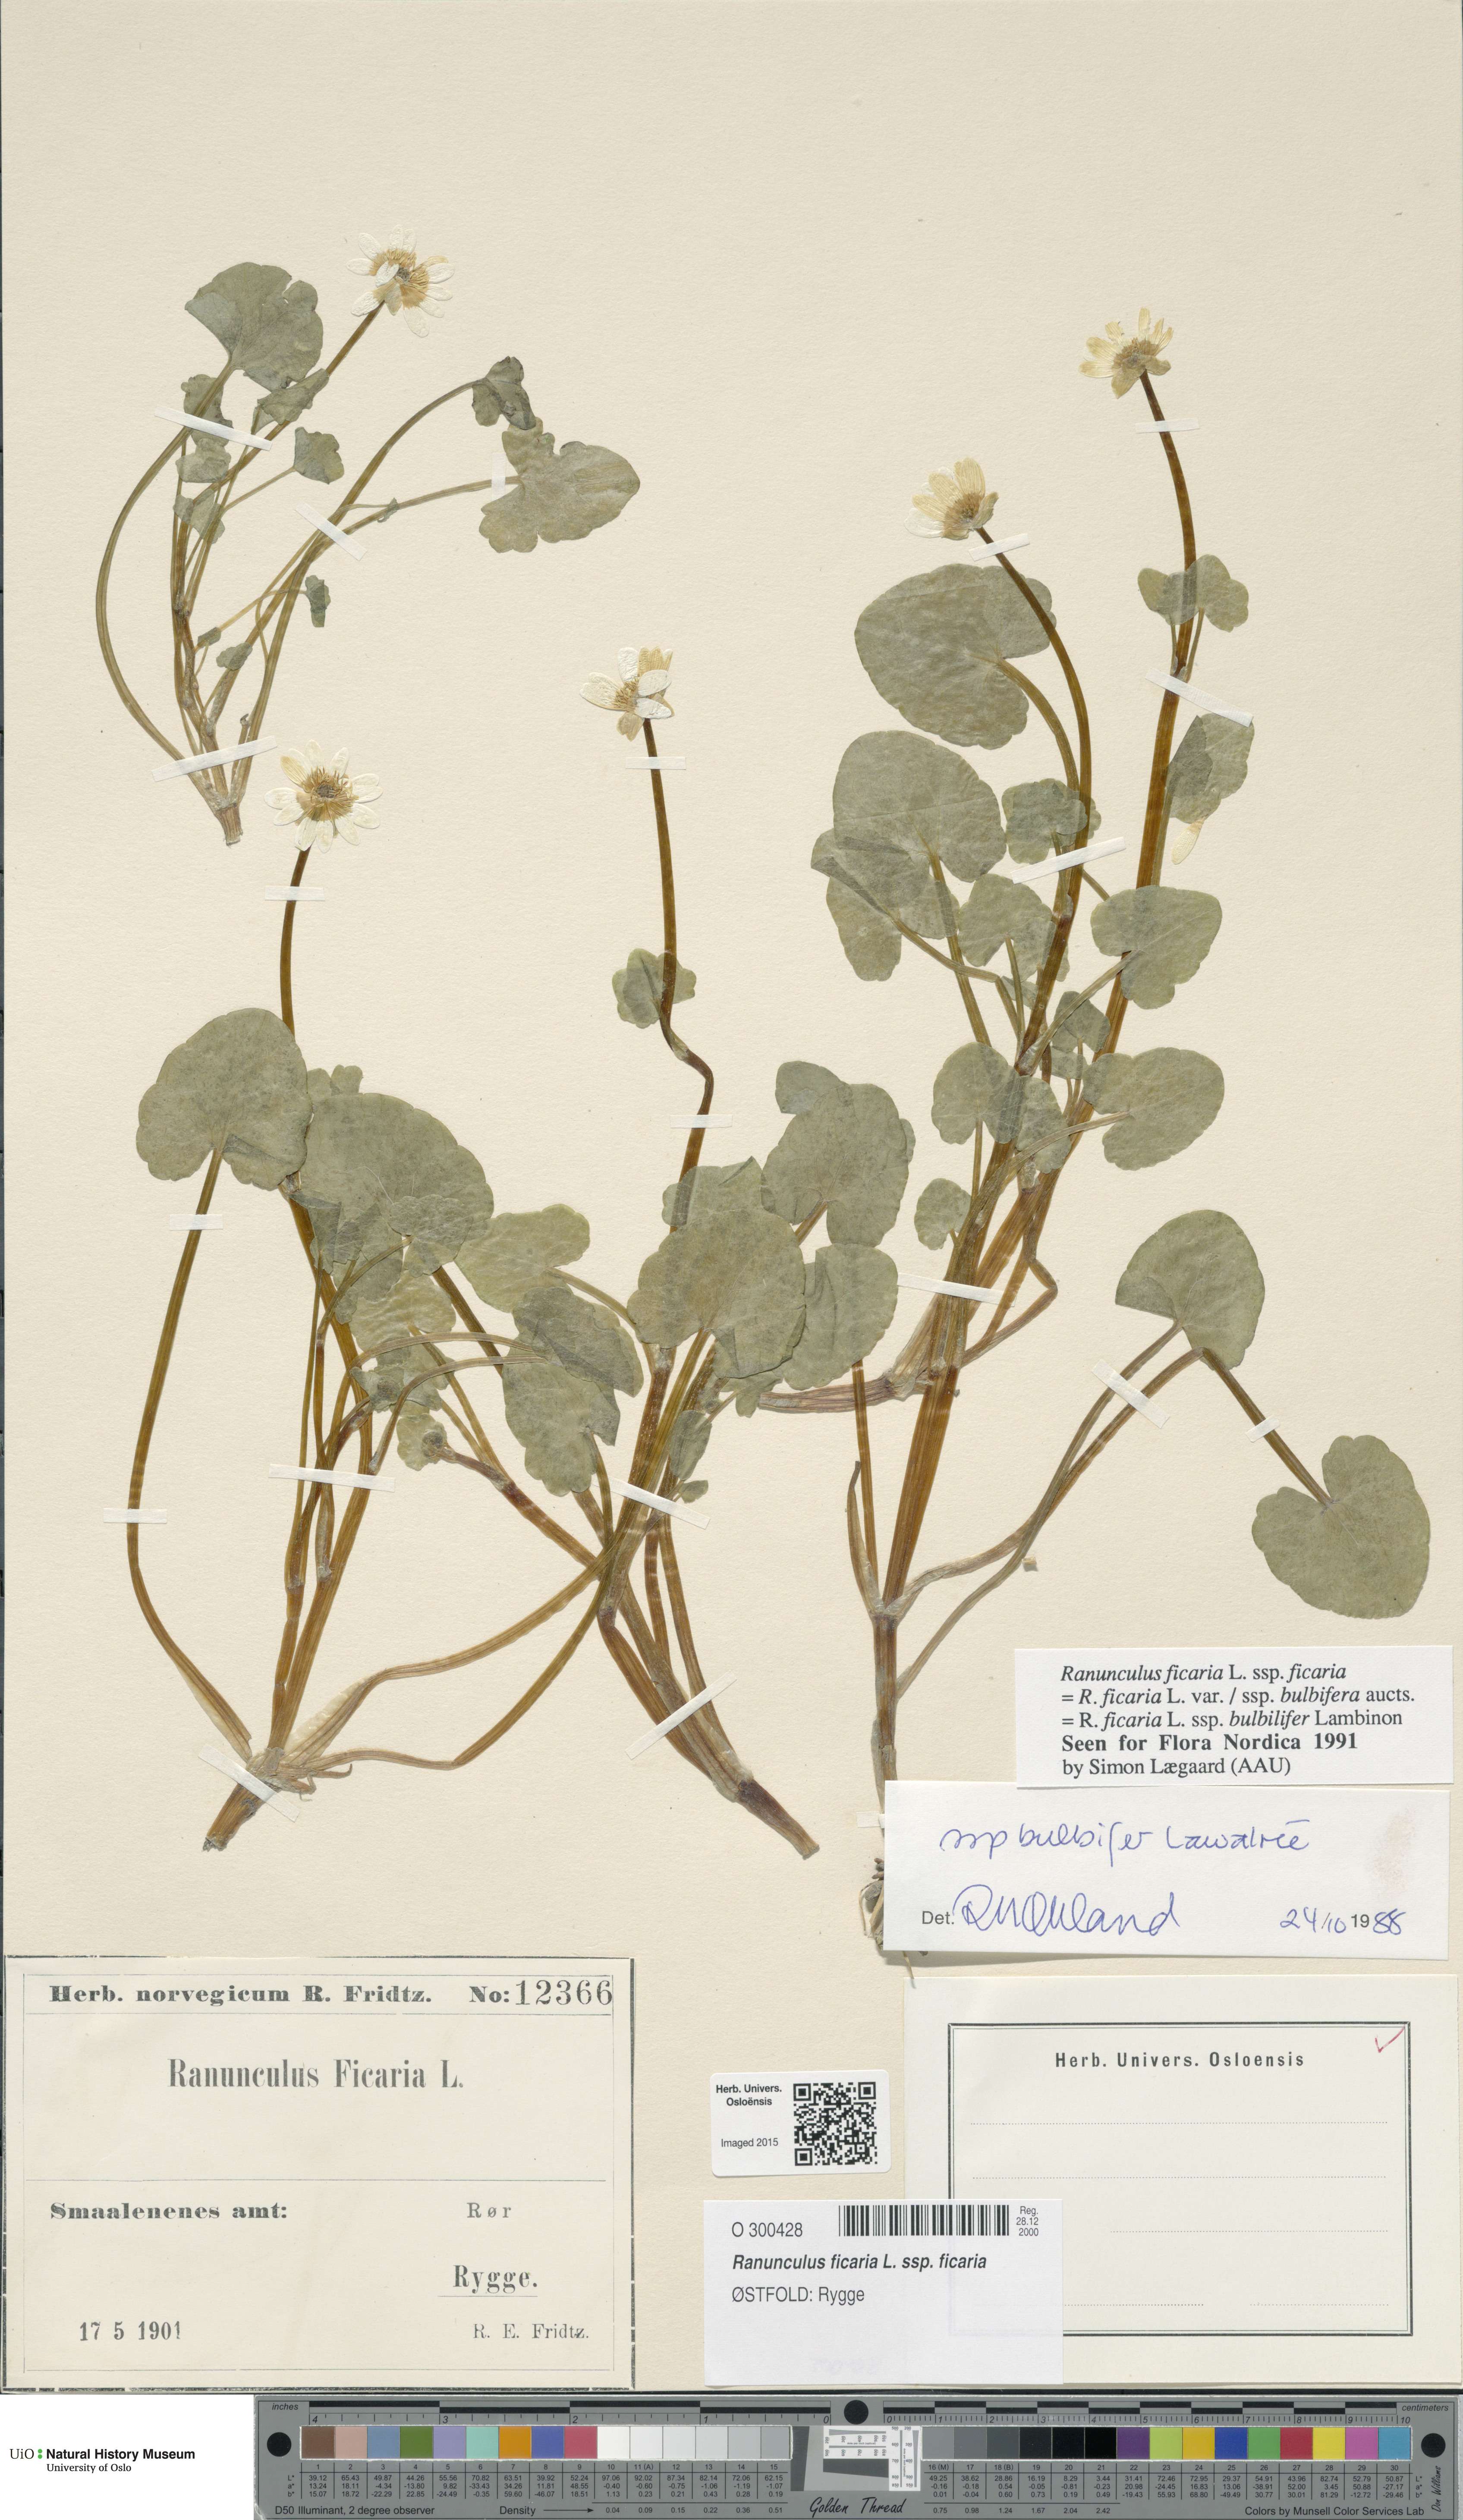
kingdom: Plantae
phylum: Tracheophyta
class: Magnoliopsida
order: Ranunculales
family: Ranunculaceae
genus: Ficaria
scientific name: Ficaria verna
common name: Lesser celandine
